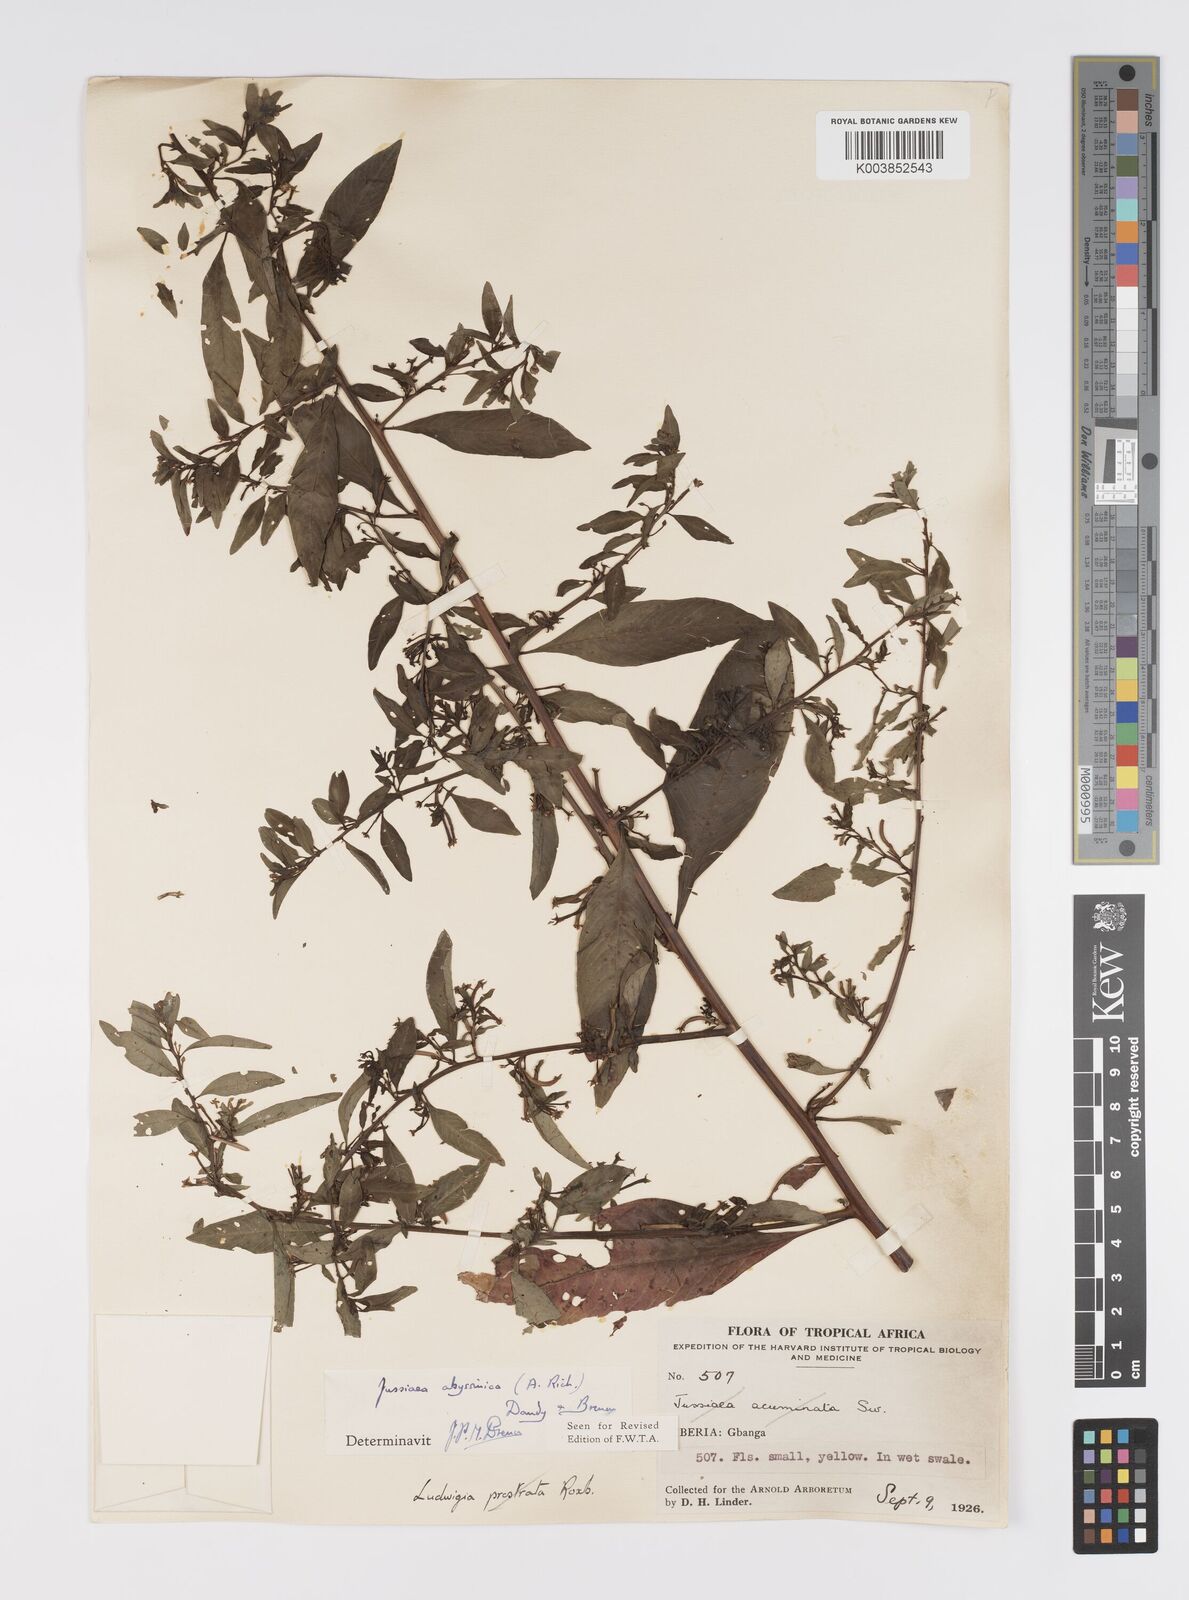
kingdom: Plantae
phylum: Tracheophyta
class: Magnoliopsida
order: Myrtales
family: Onagraceae
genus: Ludwigia
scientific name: Ludwigia abyssinica
